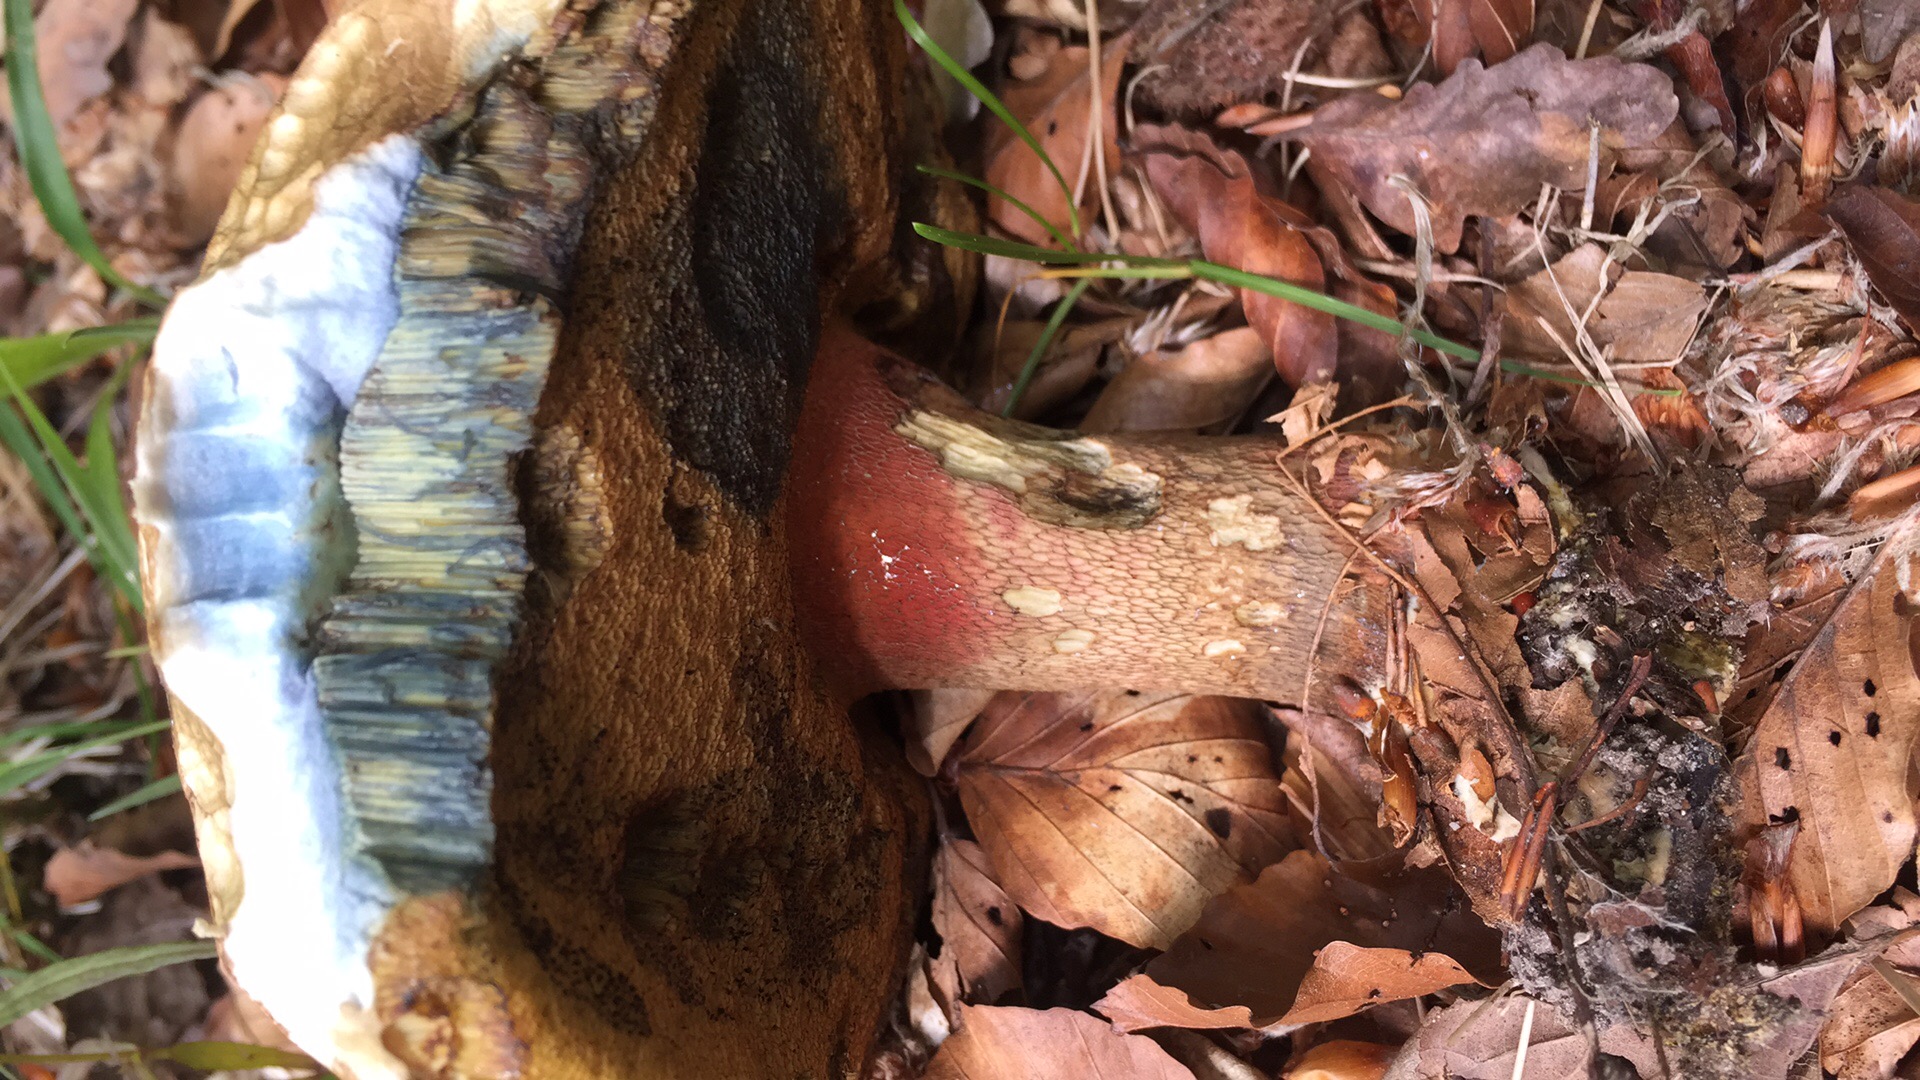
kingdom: Fungi
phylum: Basidiomycota
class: Agaricomycetes
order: Boletales
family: Boletaceae
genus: Caloboletus
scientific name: Caloboletus calopus
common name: skønfodet rørhat
